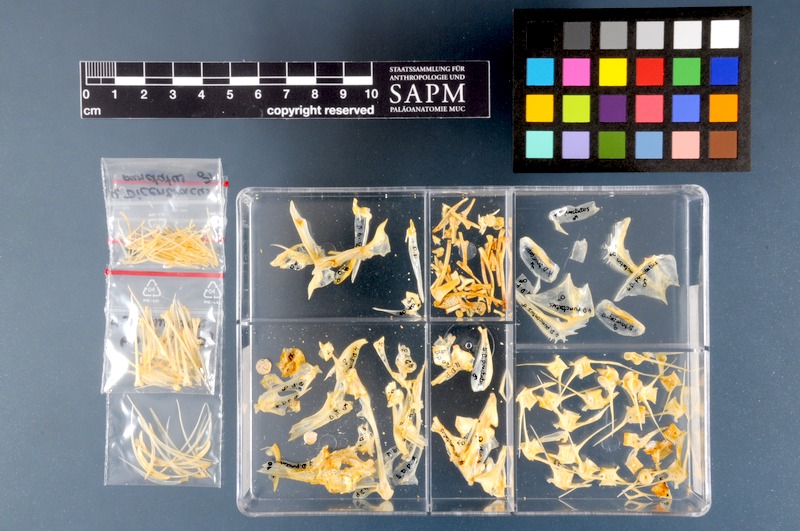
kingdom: Animalia
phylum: Chordata
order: Perciformes
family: Moronidae
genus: Dicentrarchus
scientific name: Dicentrarchus punctatus
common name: Black-spotted bass
